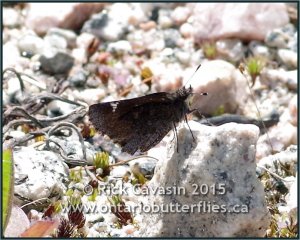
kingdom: Animalia
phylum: Arthropoda
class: Insecta
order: Lepidoptera
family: Hesperiidae
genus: Mastor
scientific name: Mastor vialis
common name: Common Roadside-Skipper
